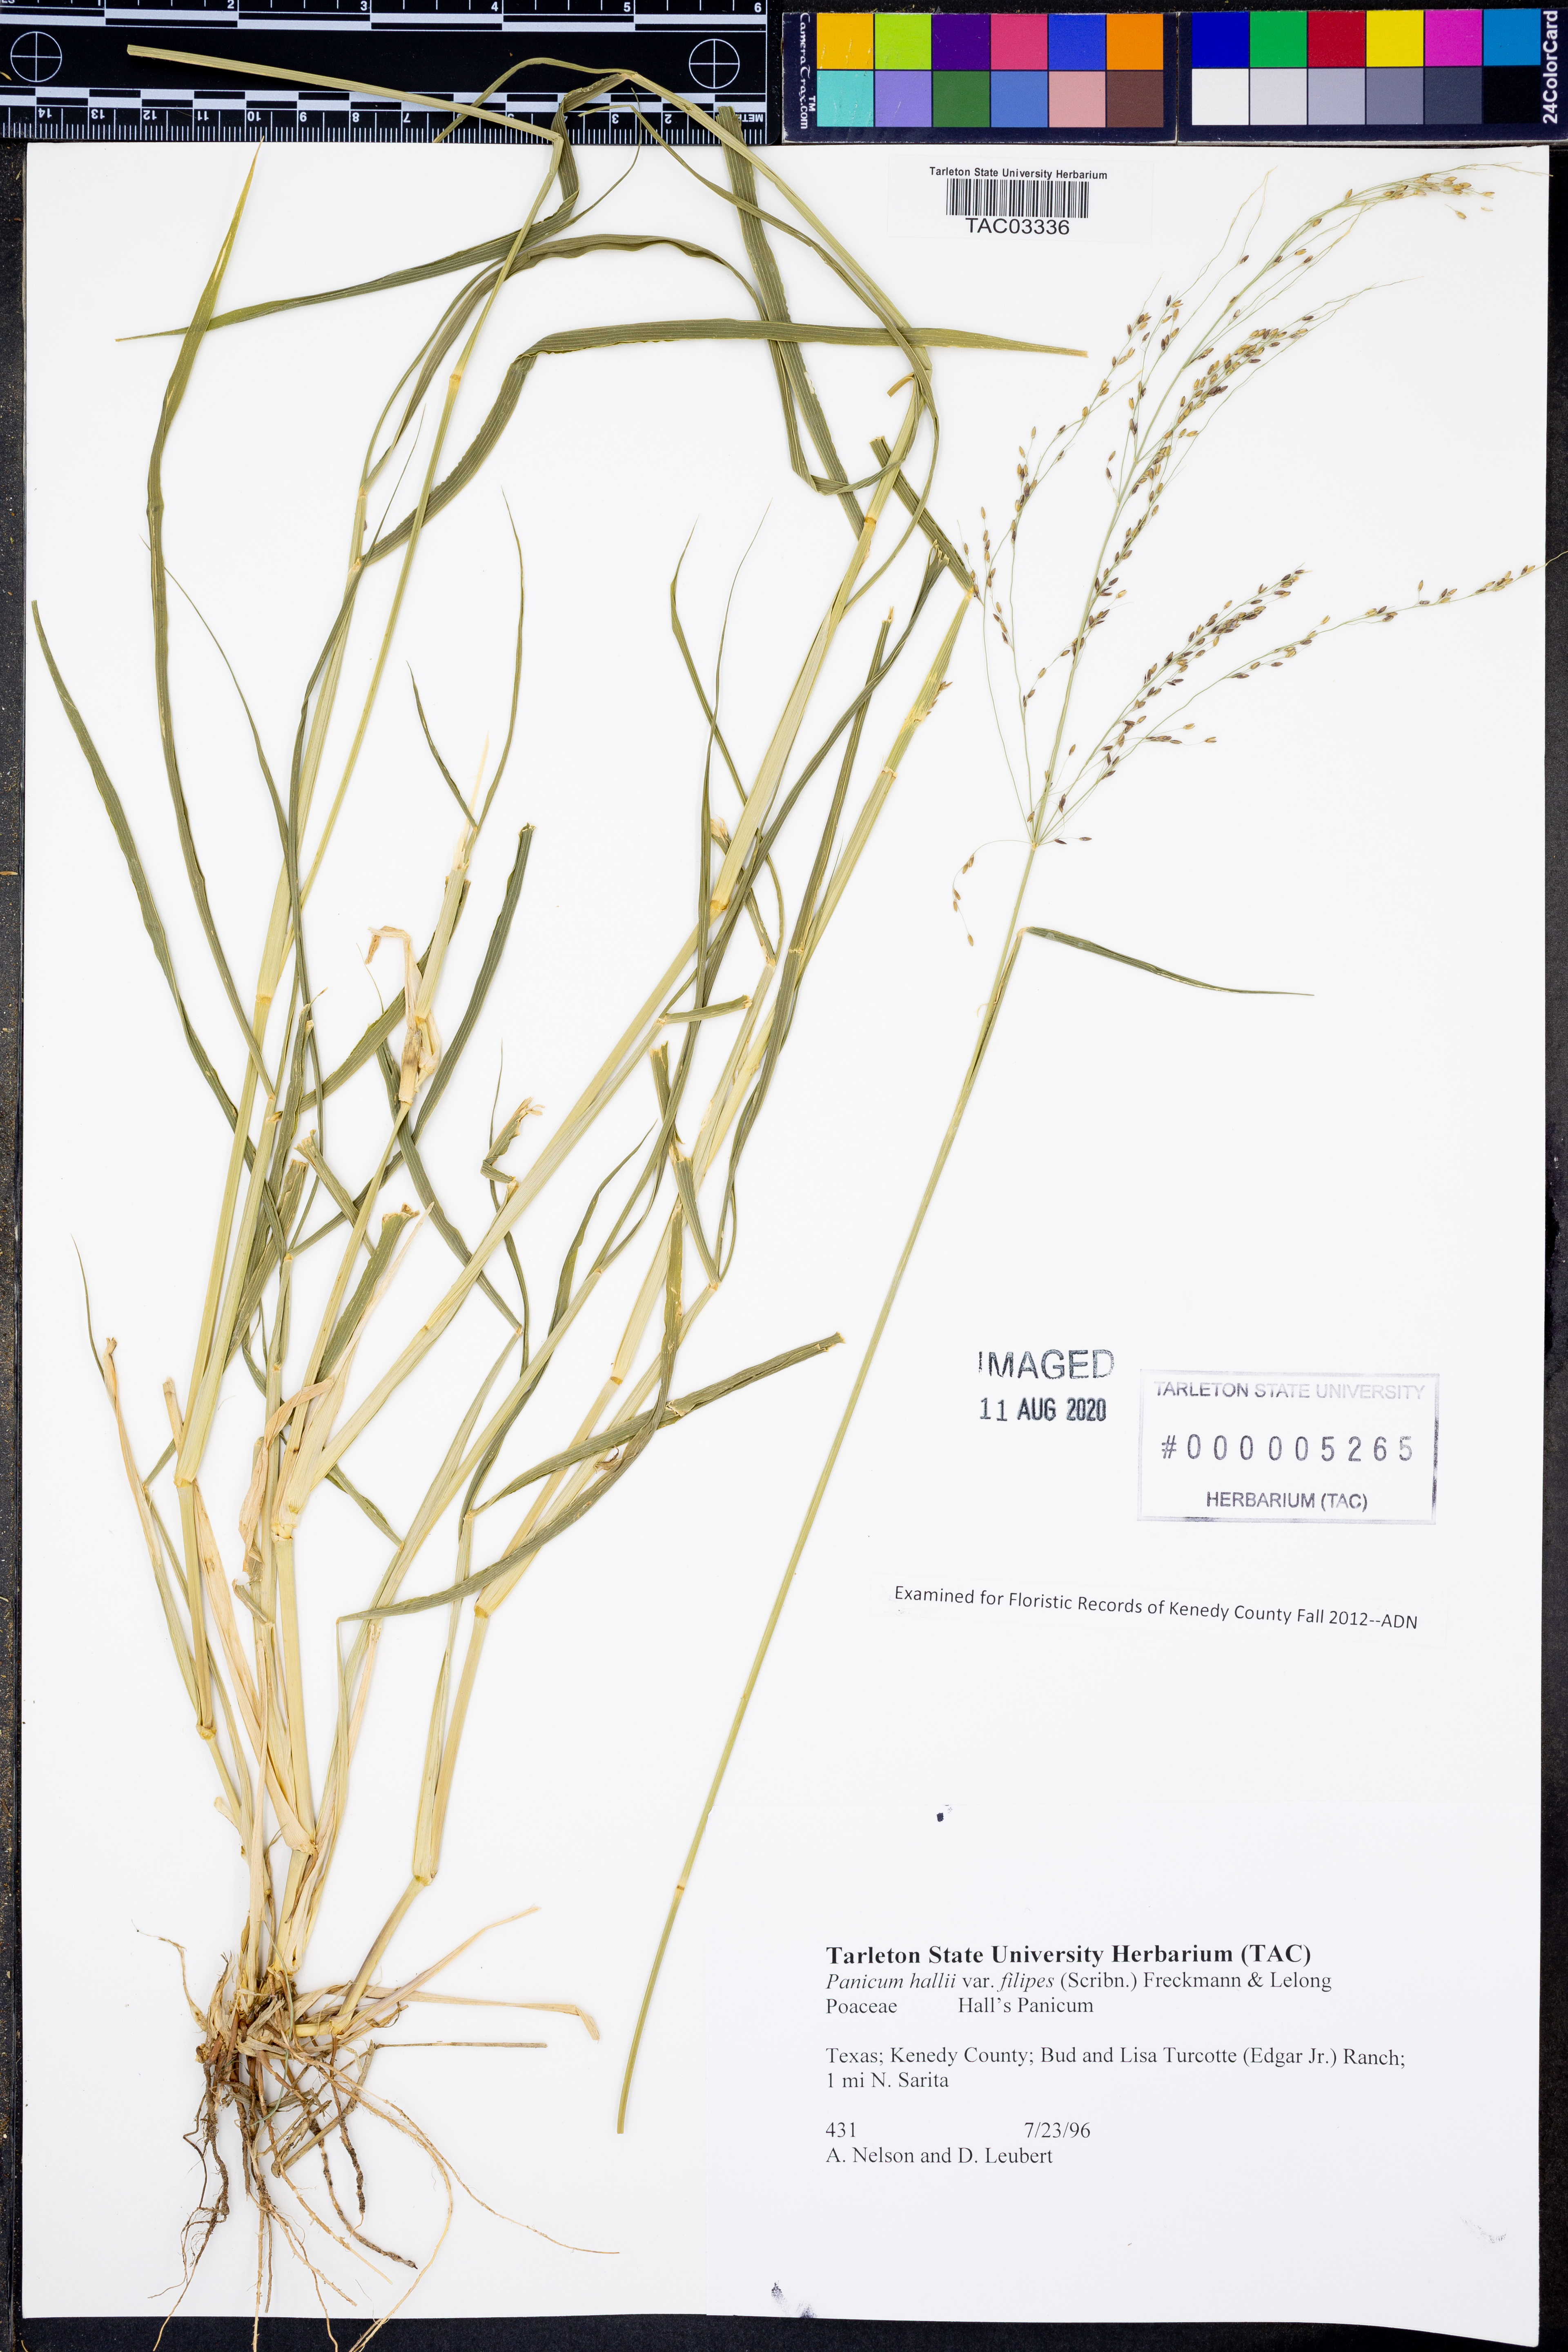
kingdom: Plantae
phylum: Tracheophyta
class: Liliopsida
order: Poales
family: Poaceae
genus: Panicum
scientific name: Panicum hallii
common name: Hall's witchgrass
